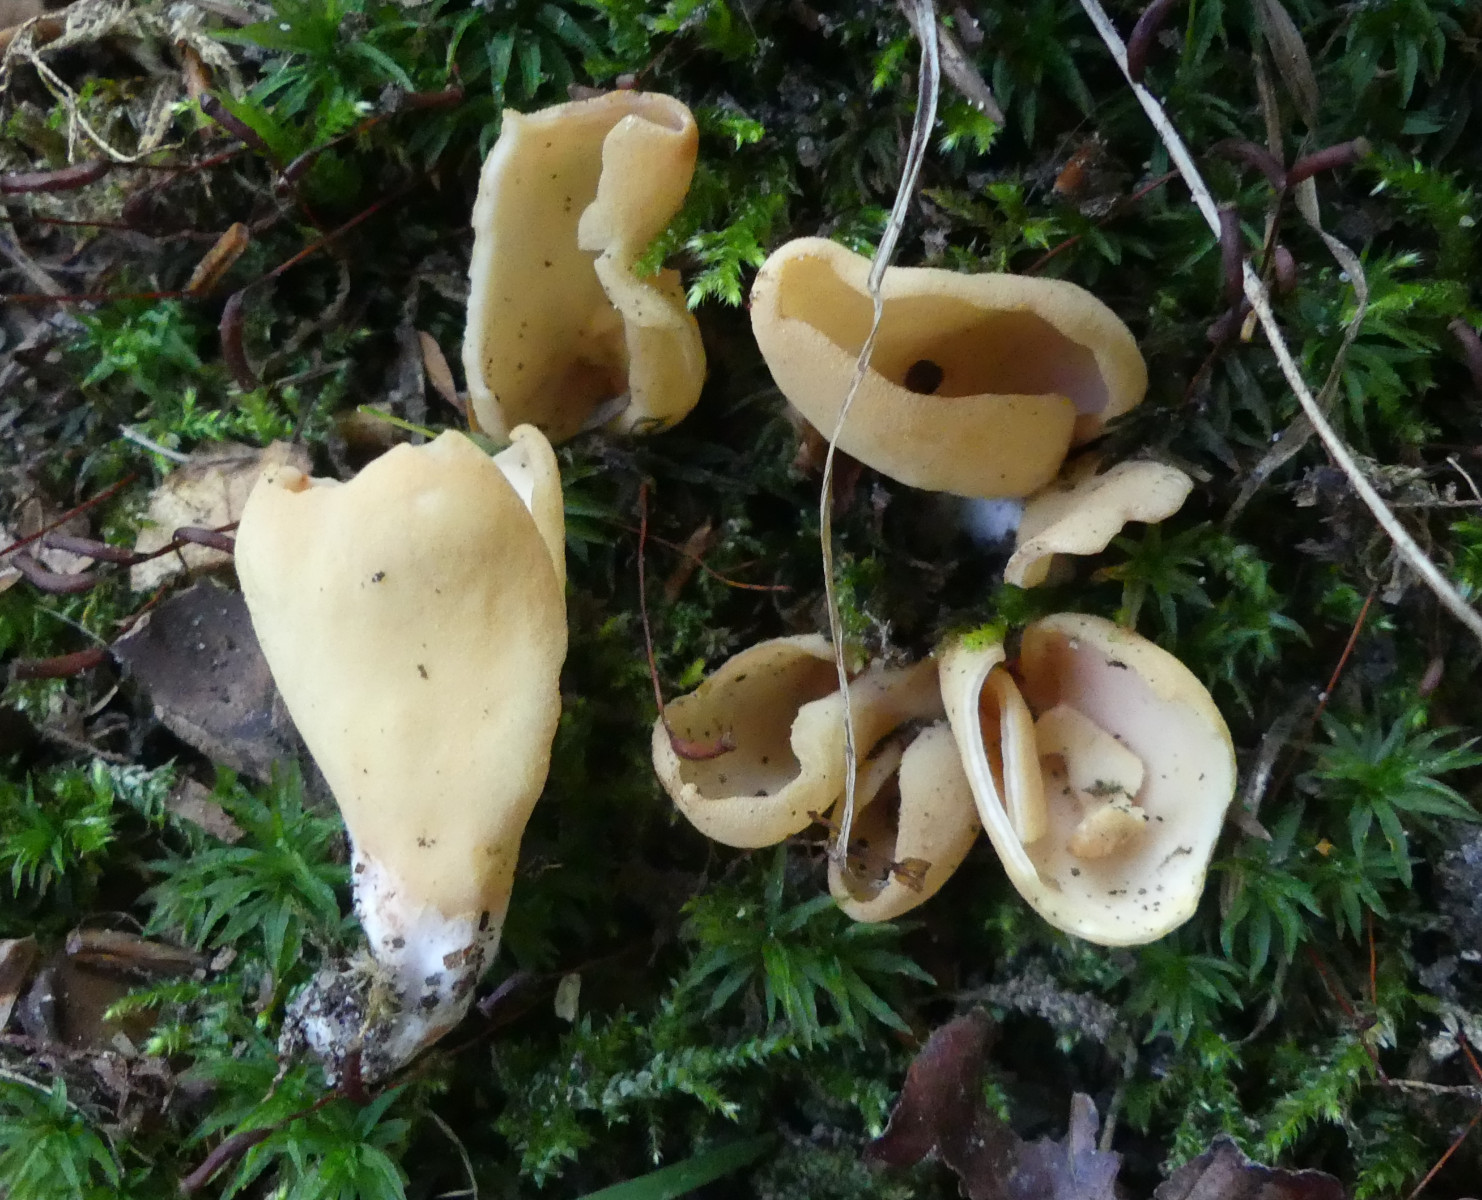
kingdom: Fungi
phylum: Ascomycota
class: Pezizomycetes
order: Pezizales
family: Otideaceae
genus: Otidea
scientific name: Otidea onotica
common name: æsel-ørebæger
